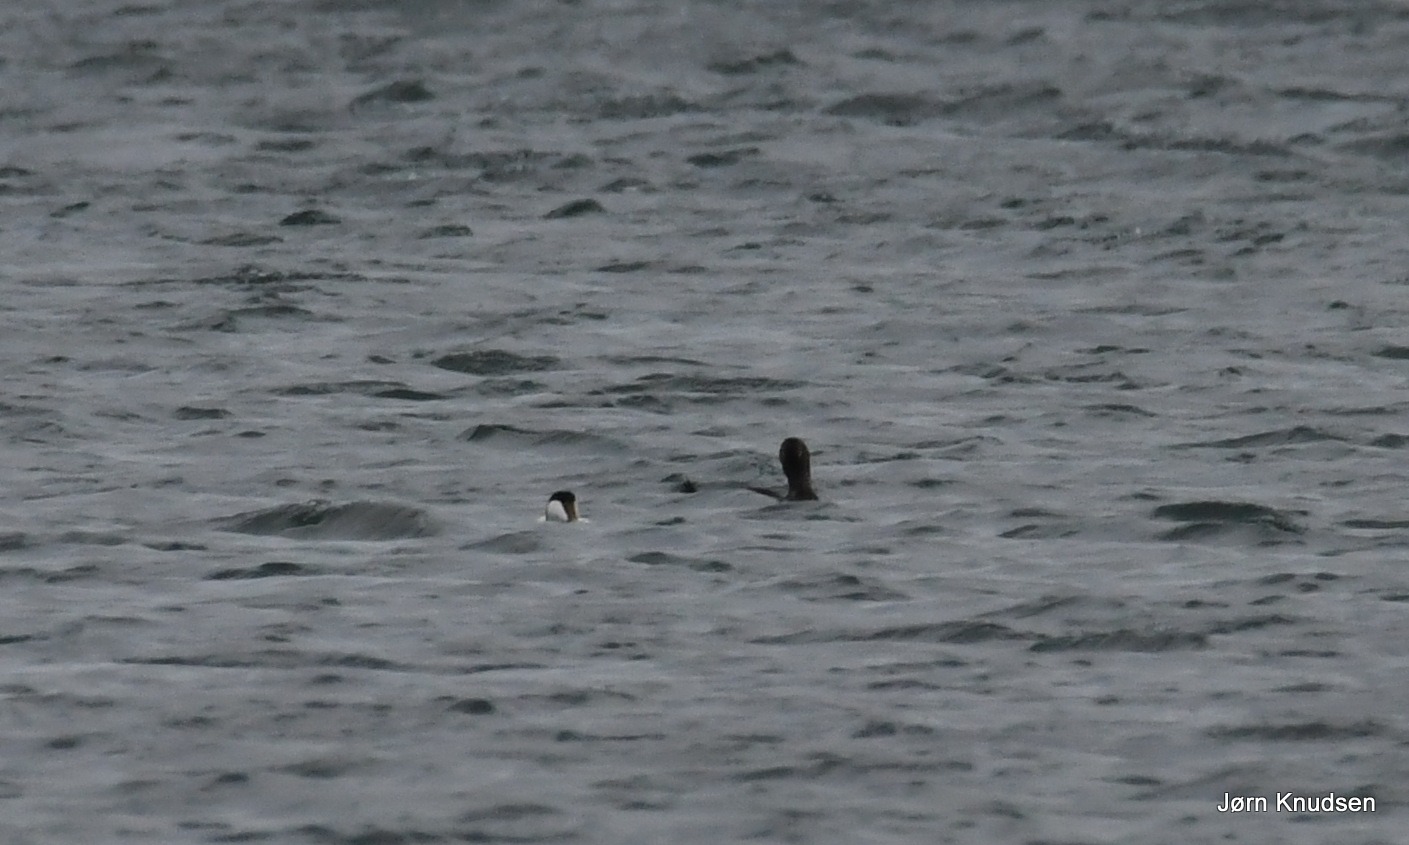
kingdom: Animalia
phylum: Chordata
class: Aves
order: Anseriformes
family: Anatidae
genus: Somateria
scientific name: Somateria mollissima
